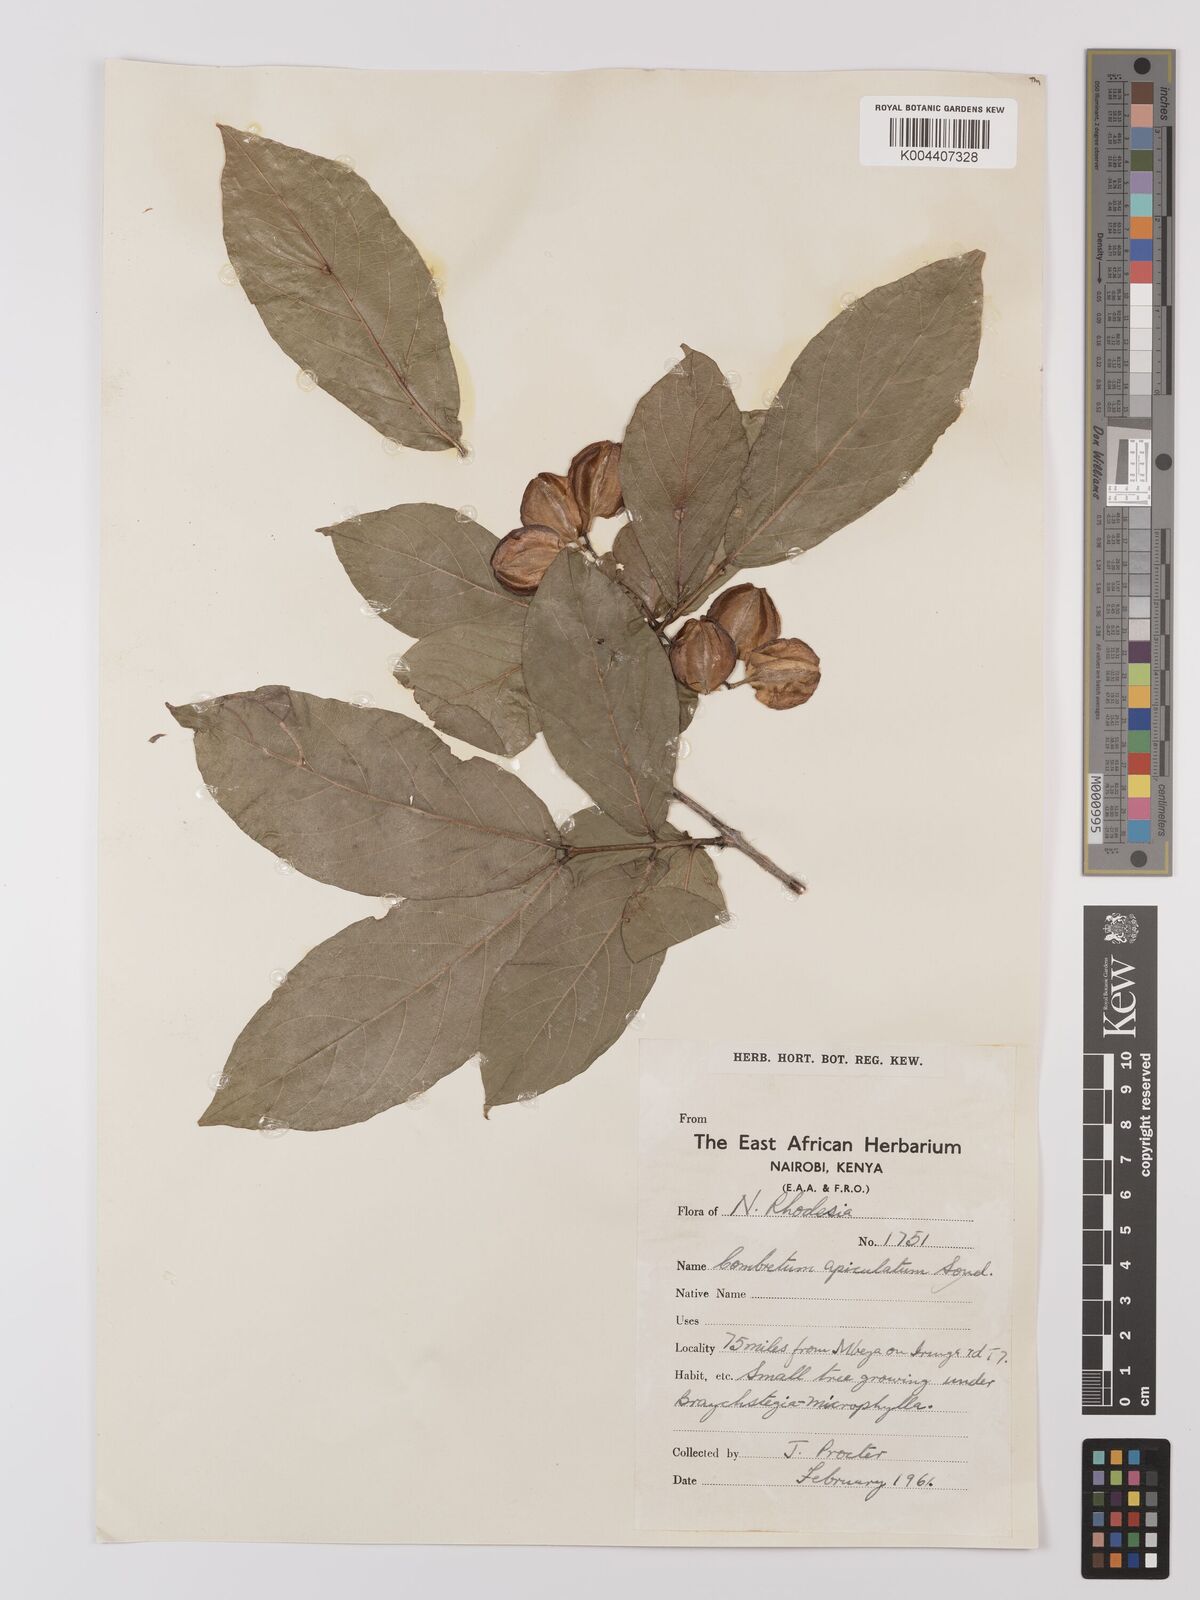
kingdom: Plantae
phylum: Tracheophyta
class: Magnoliopsida
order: Myrtales
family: Combretaceae
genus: Combretum
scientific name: Combretum apiculatum
